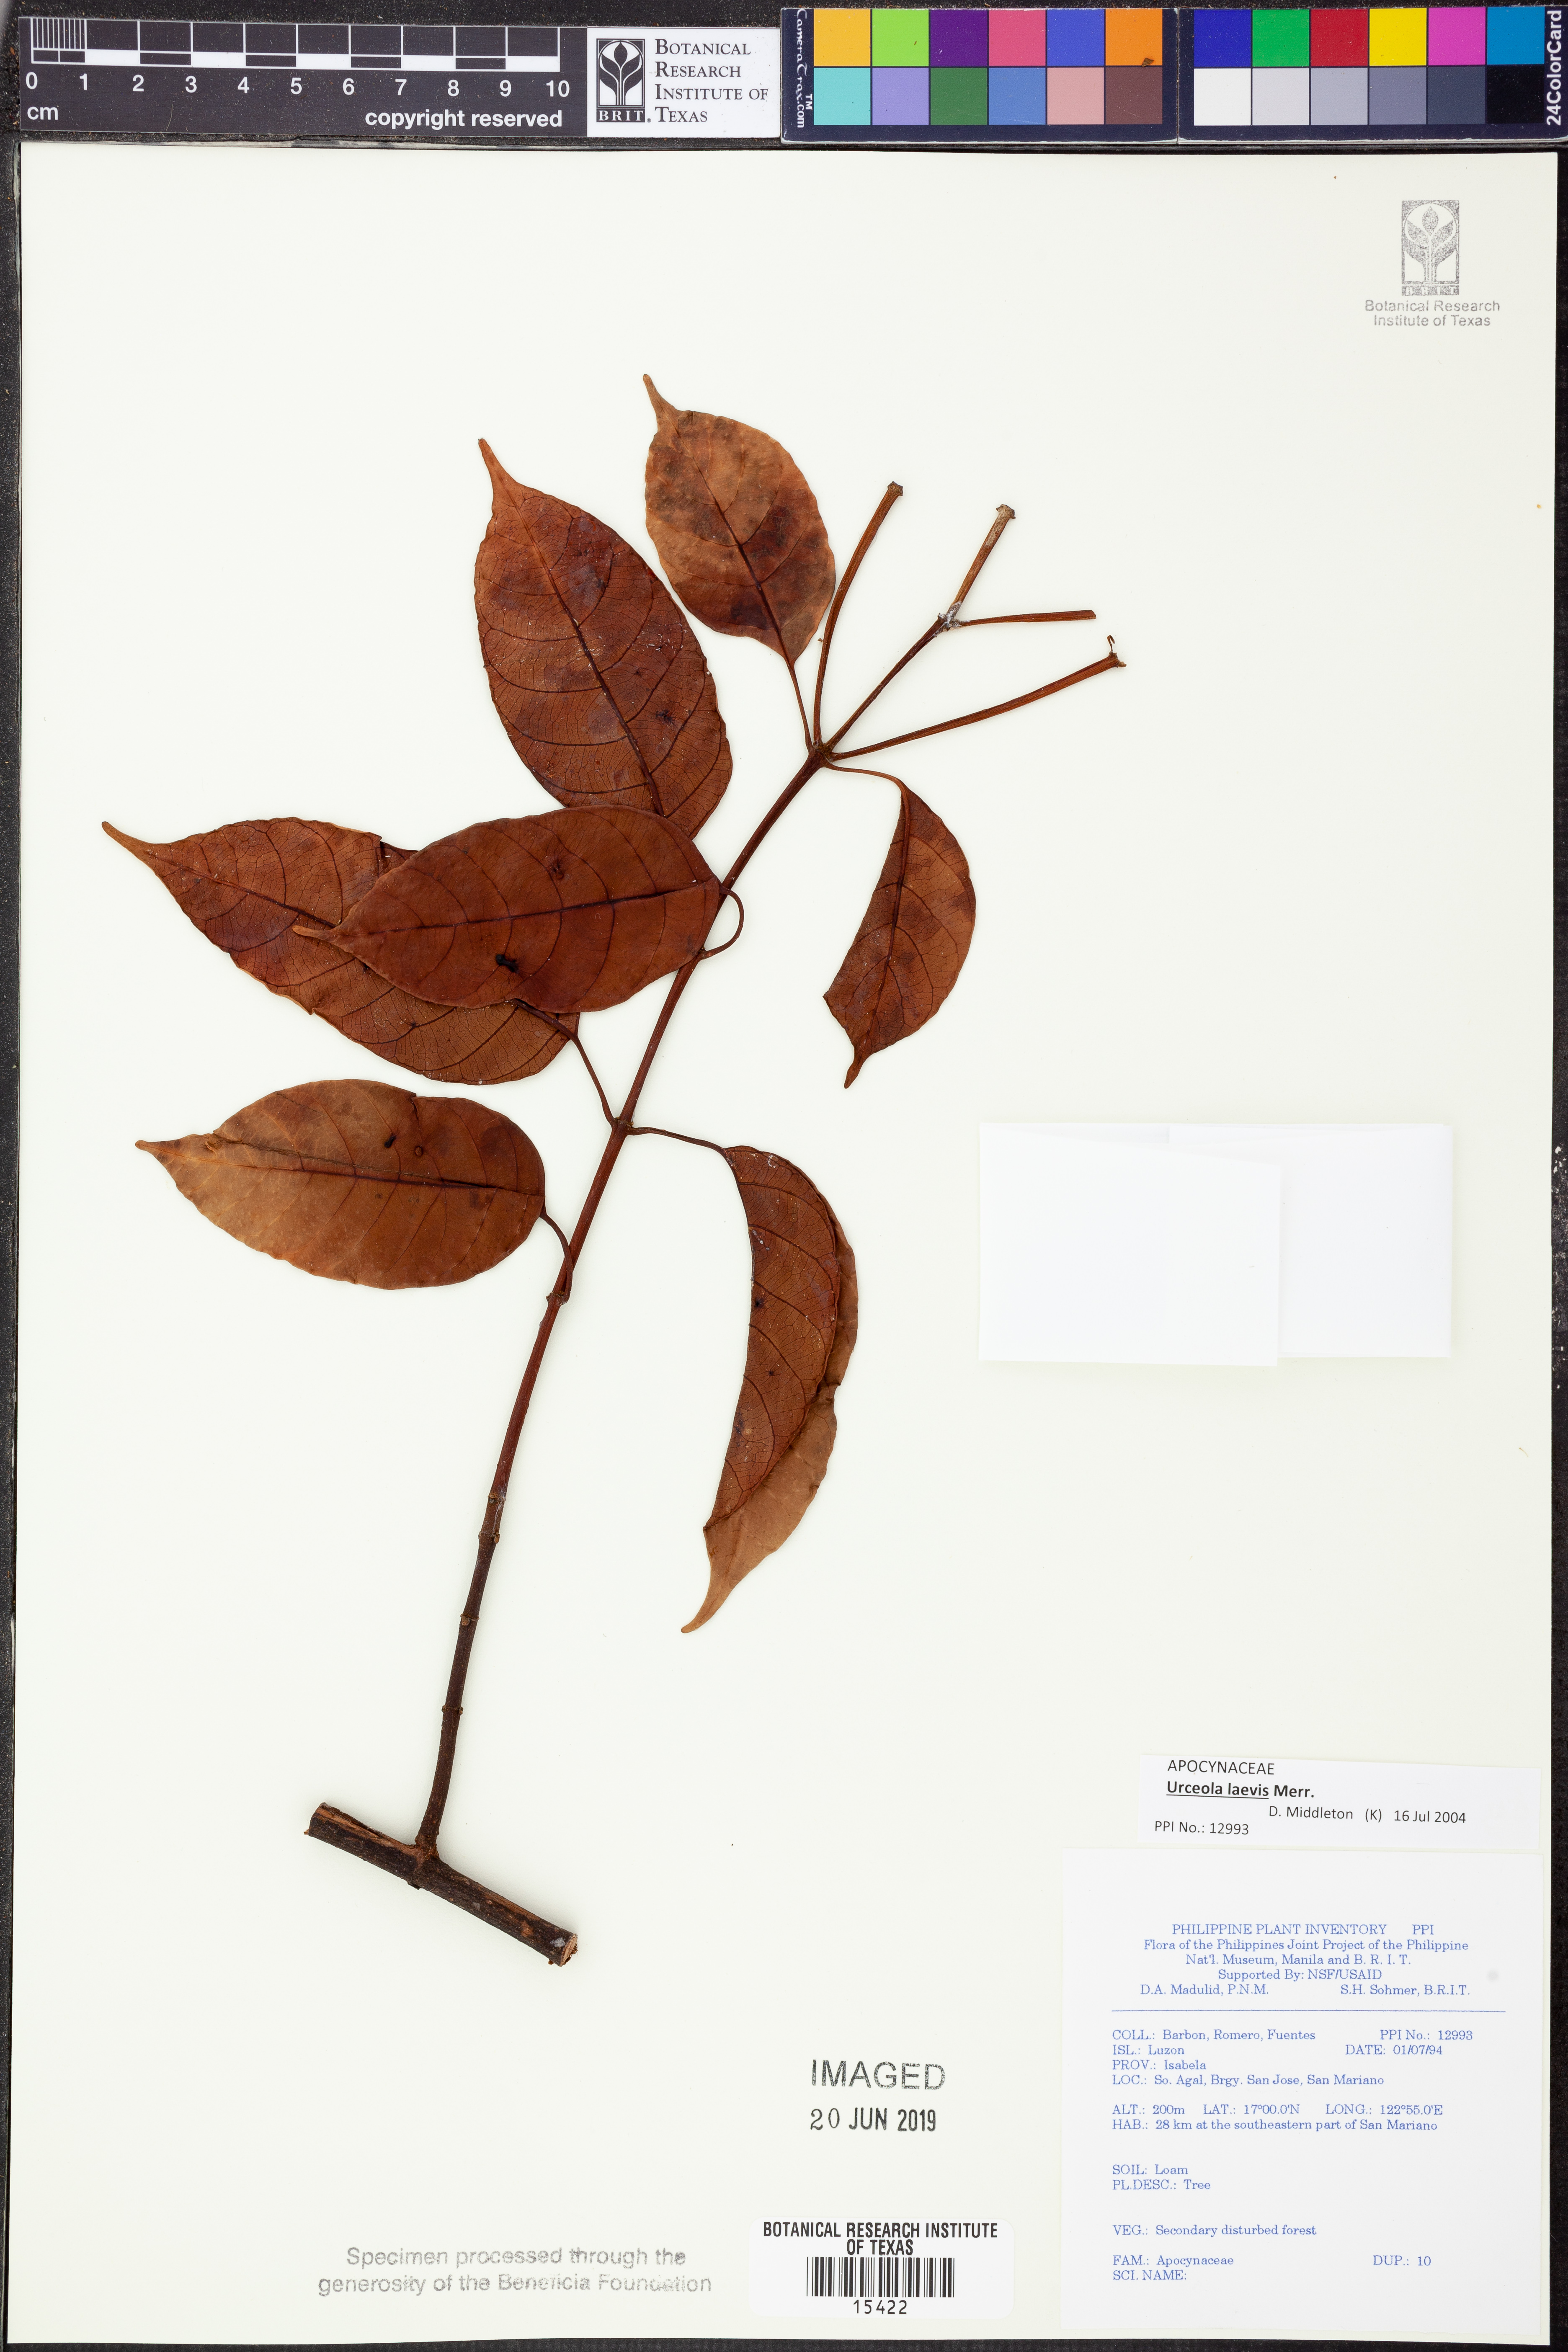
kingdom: Plantae
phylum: Tracheophyta
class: Magnoliopsida
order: Gentianales
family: Apocynaceae
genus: Urceola
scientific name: Urceola laevis
